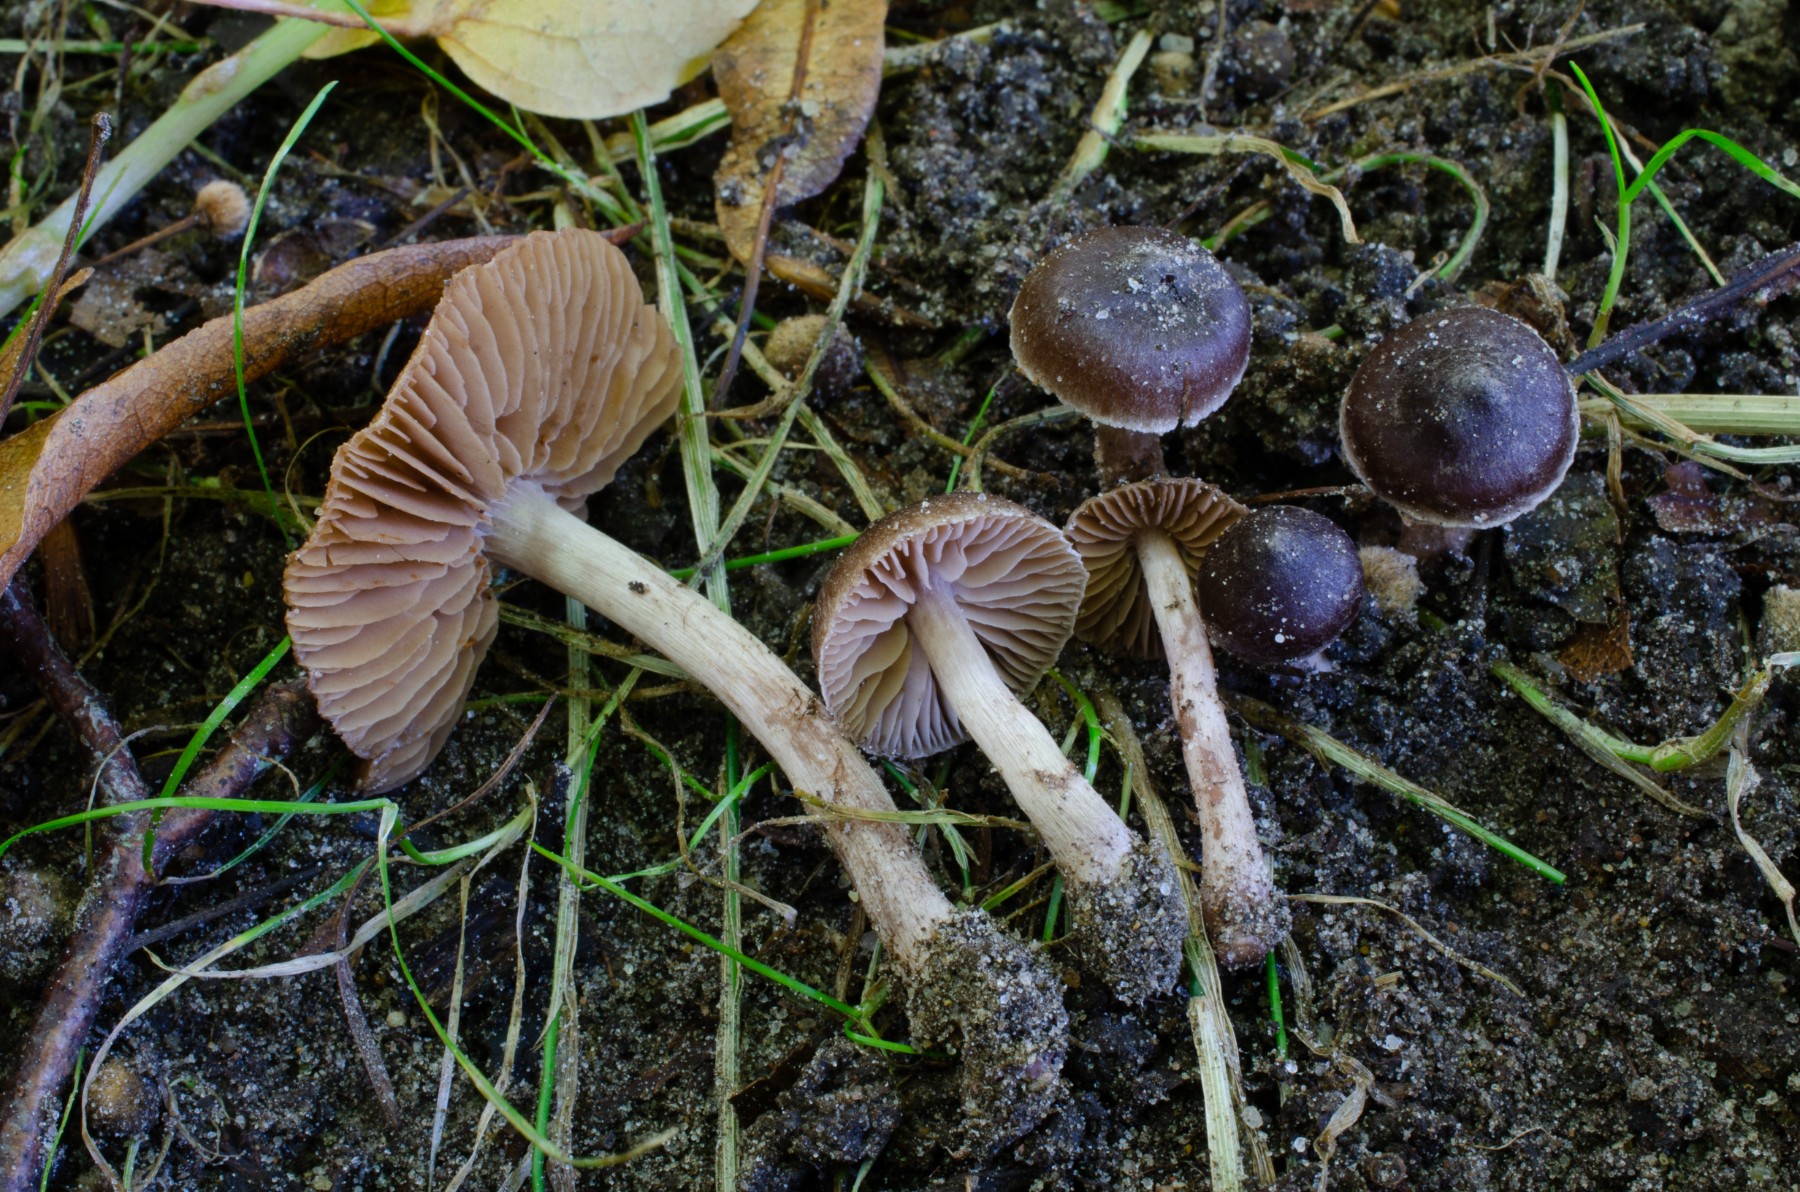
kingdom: Fungi
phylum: Basidiomycota
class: Agaricomycetes
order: Agaricales
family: Cortinariaceae
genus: Cortinarius
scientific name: Cortinarius desertorum
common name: skær slørhat
